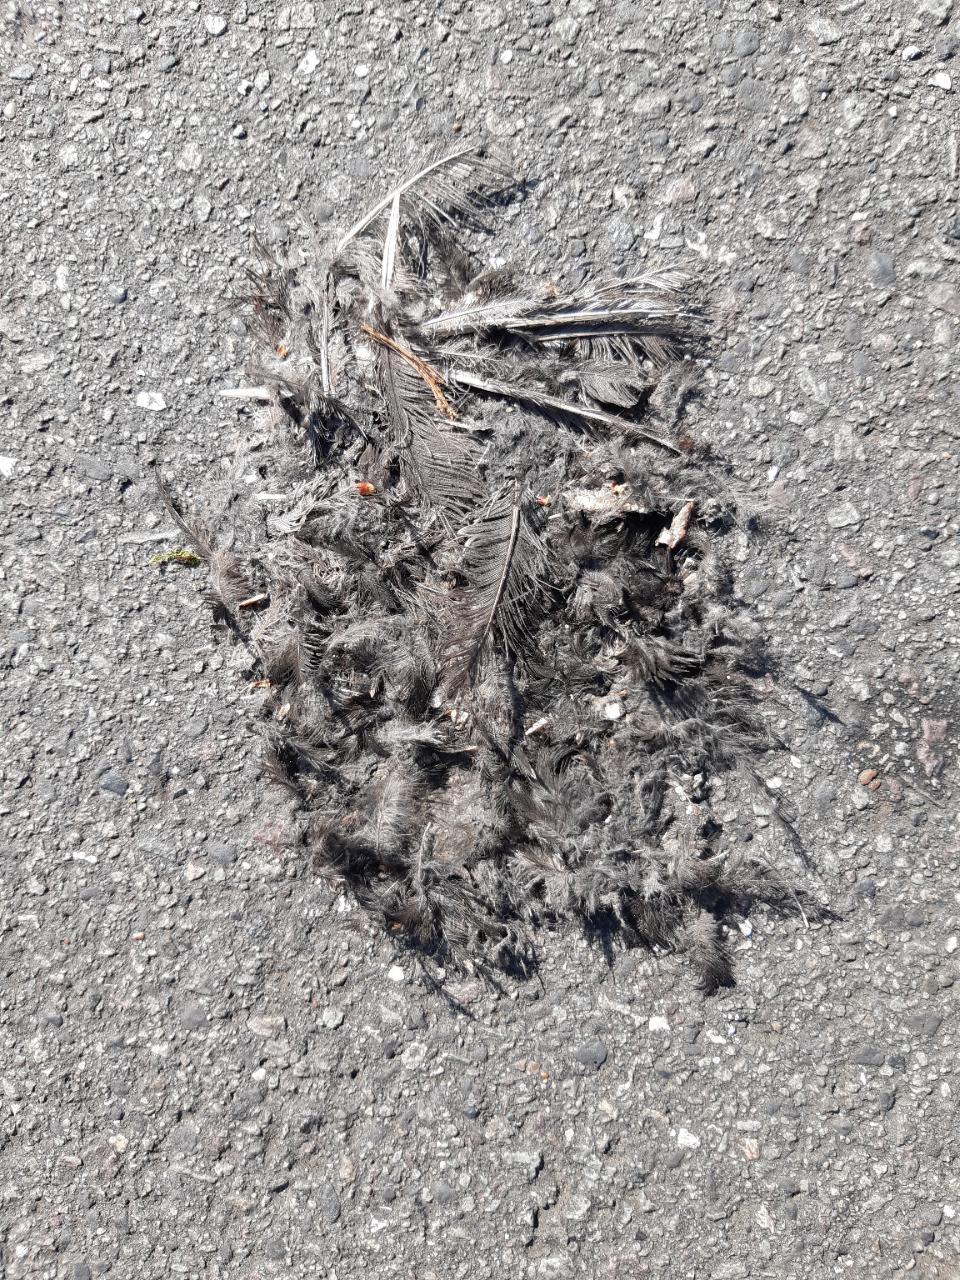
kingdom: Animalia
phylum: Chordata
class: Aves
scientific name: Aves
